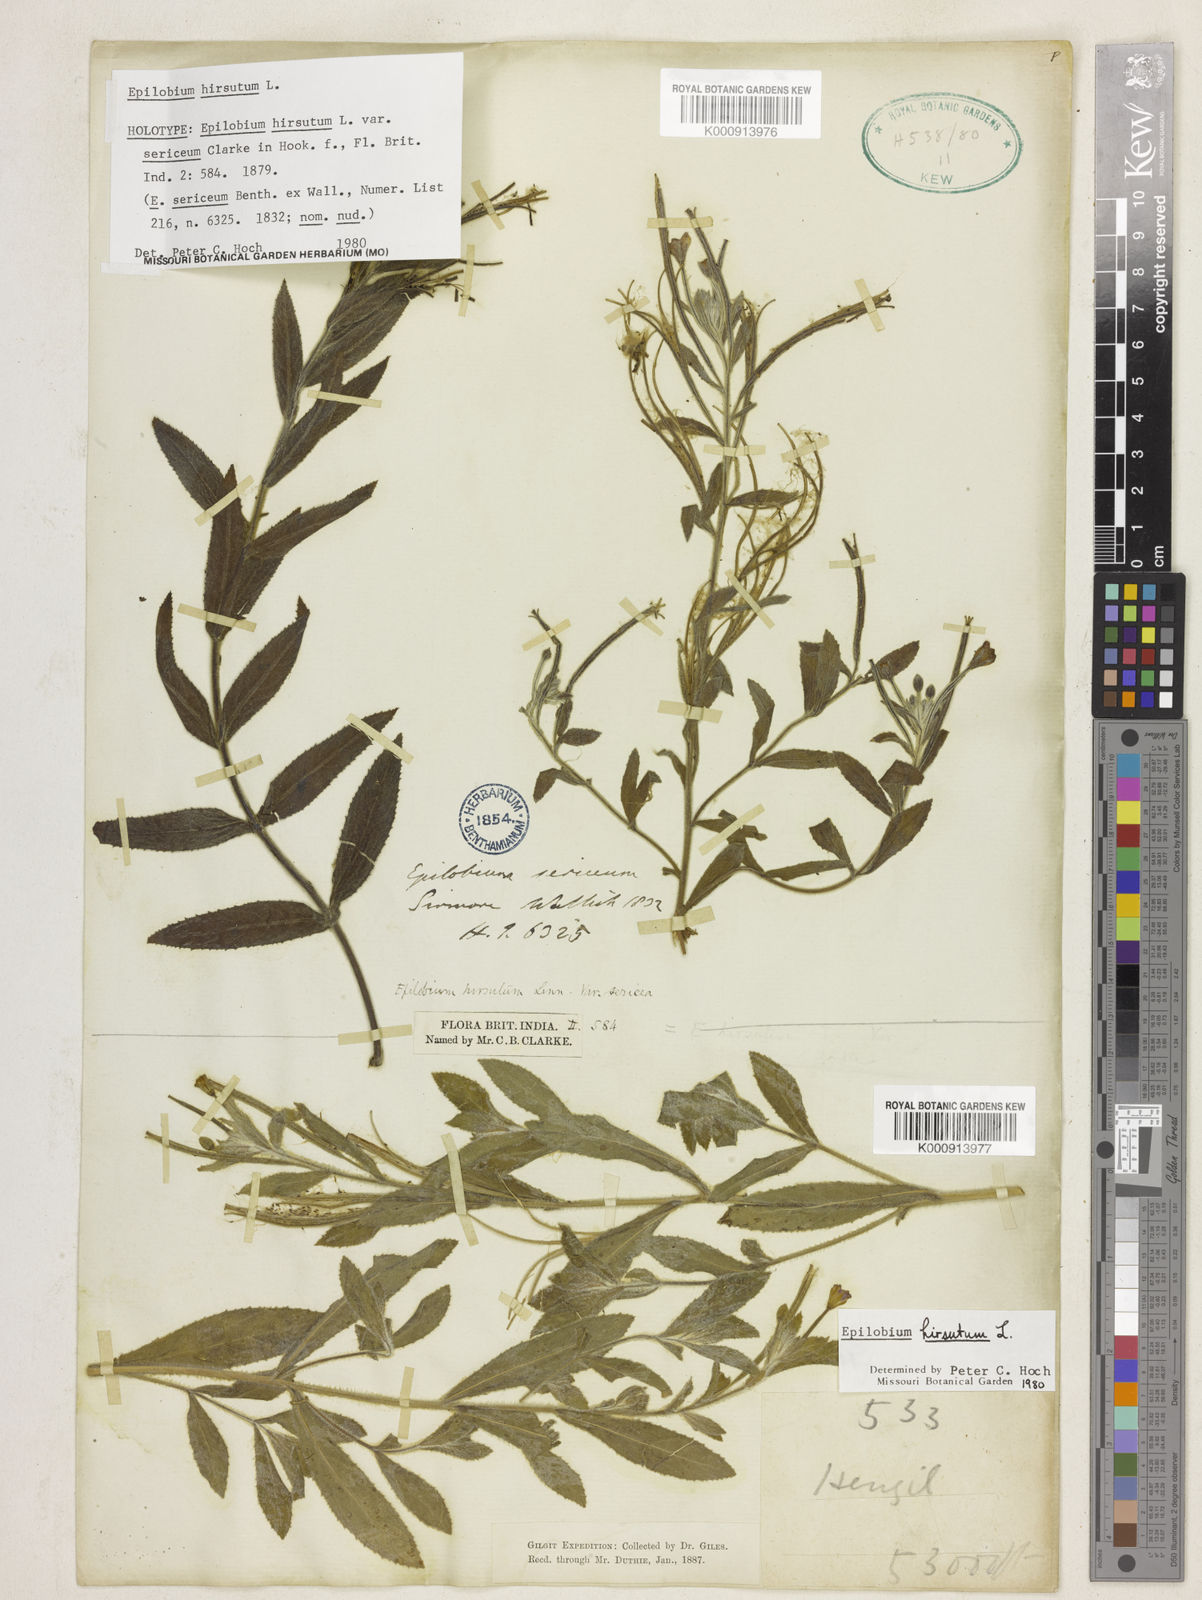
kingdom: Plantae
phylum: Tracheophyta
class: Magnoliopsida
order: Myrtales
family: Onagraceae
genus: Epilobium
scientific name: Epilobium hirsutum
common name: Great willowherb
